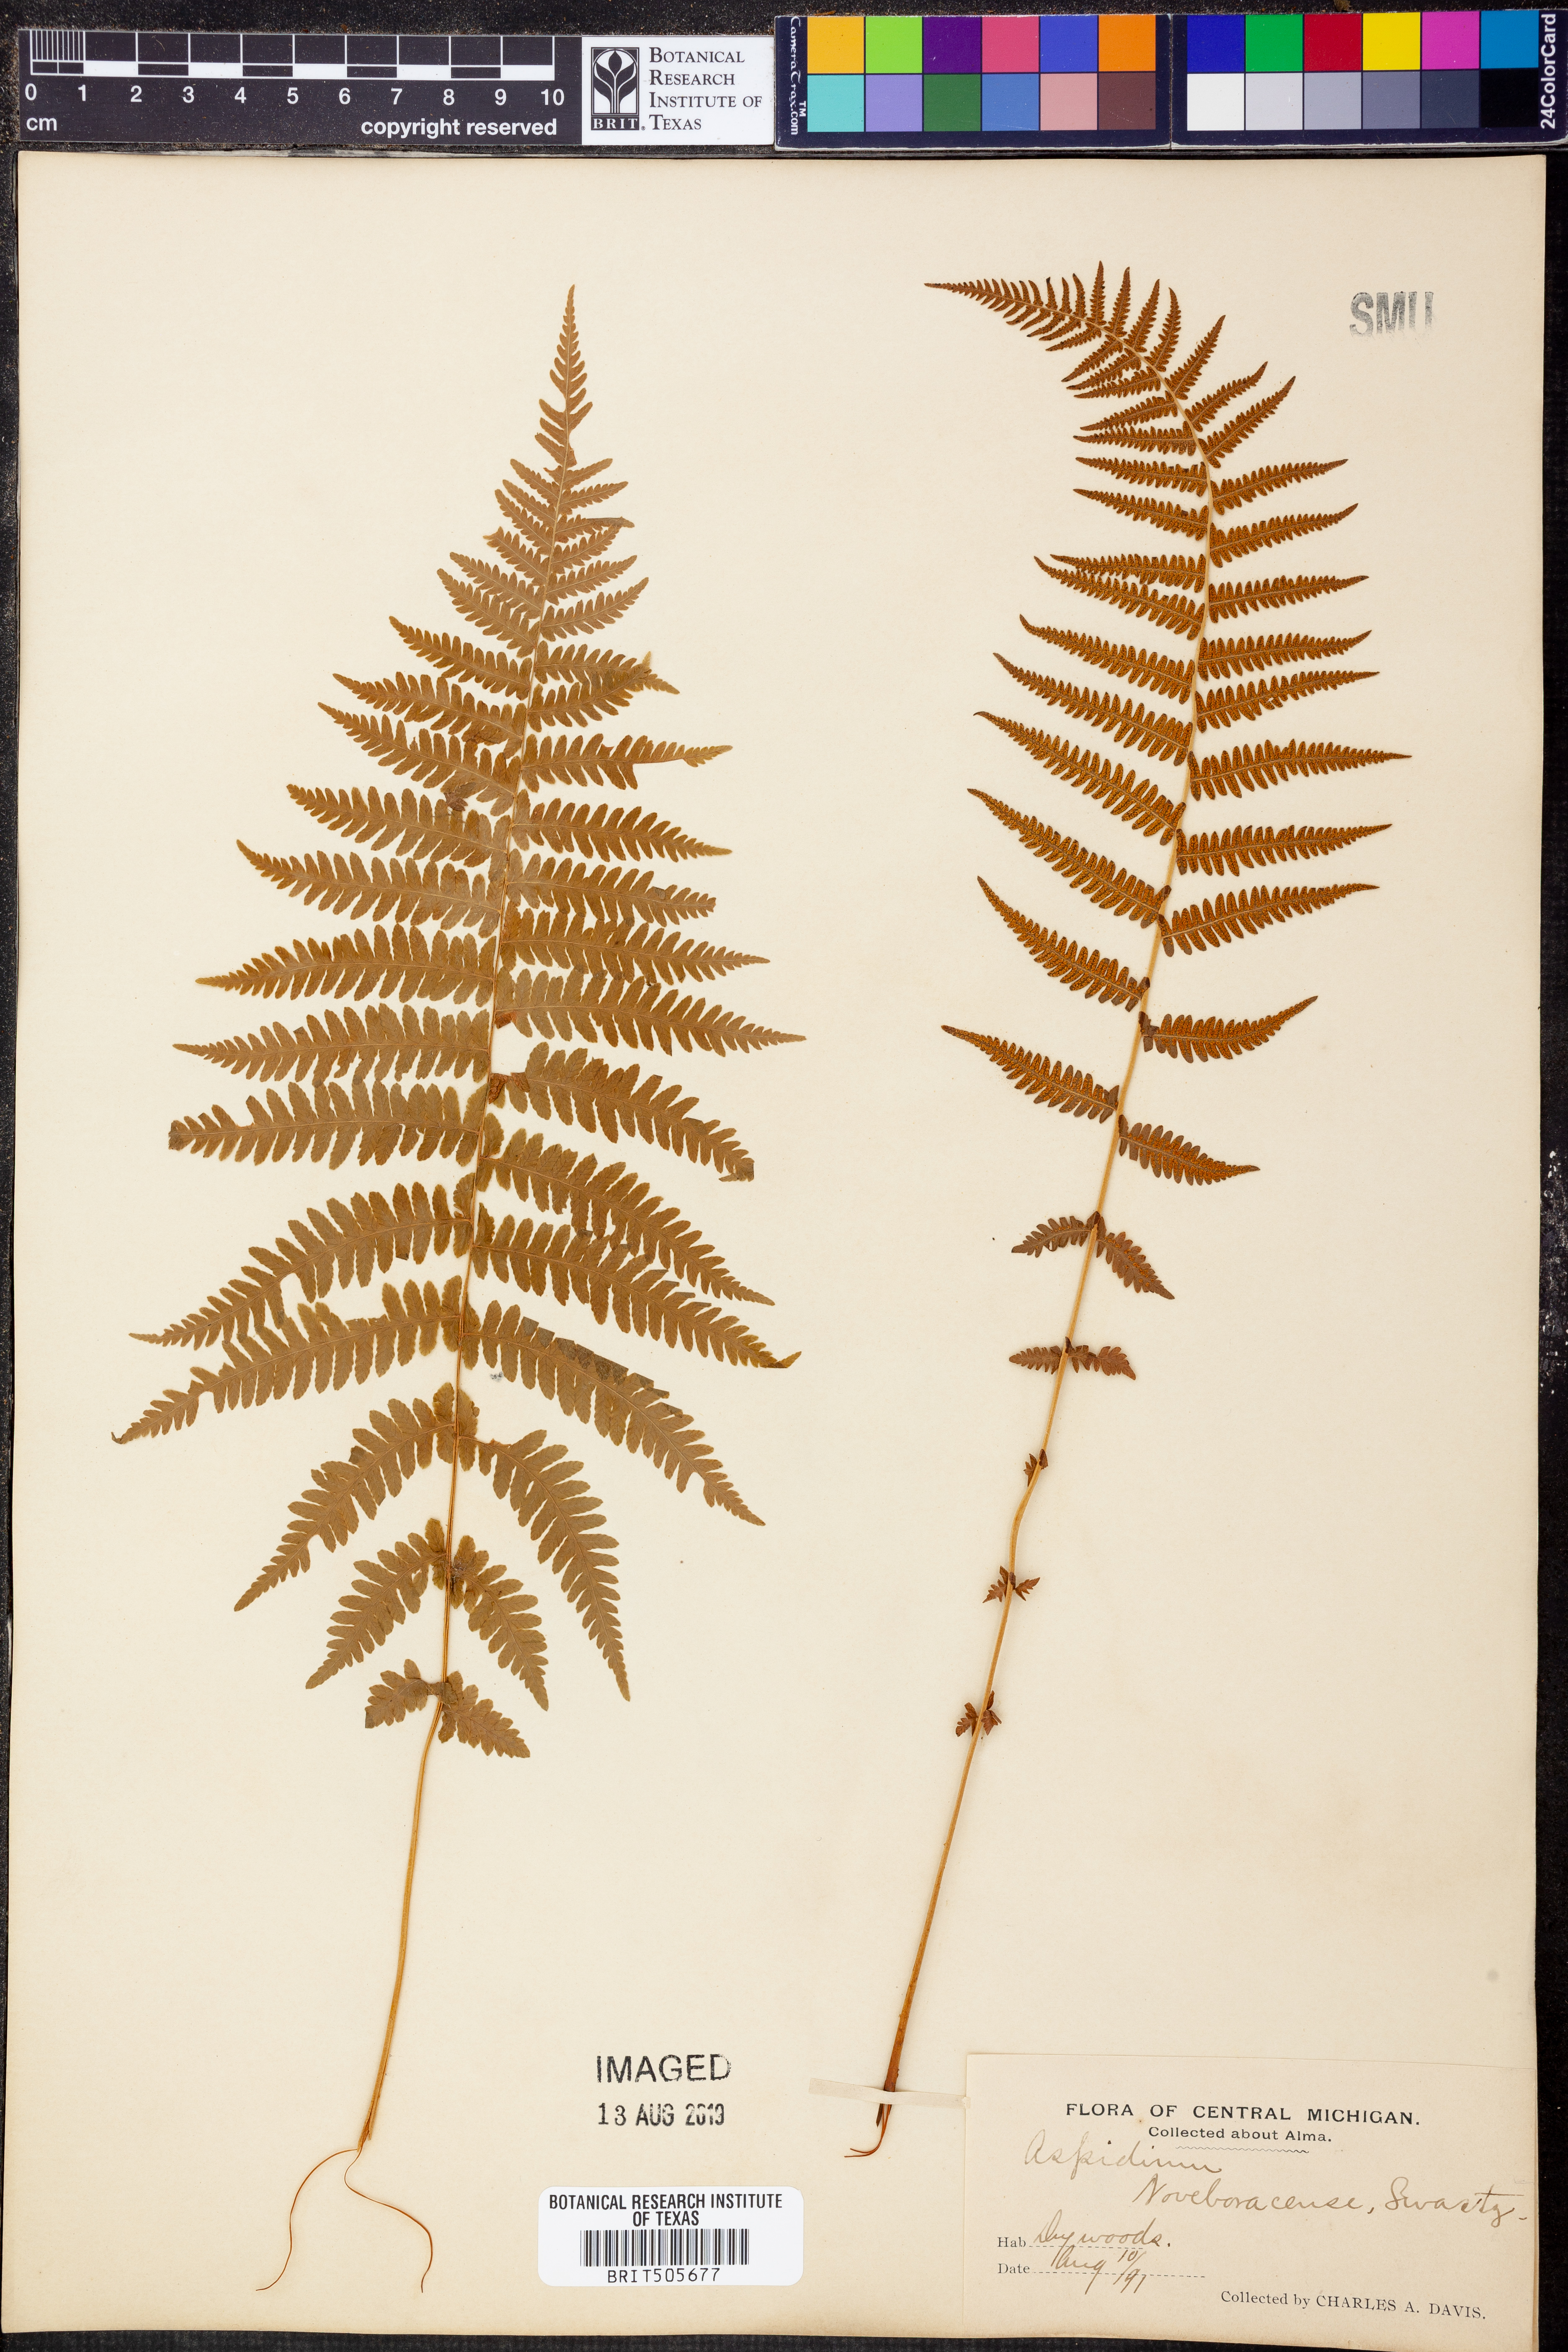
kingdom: Plantae
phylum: Tracheophyta
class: Polypodiopsida
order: Polypodiales
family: Thelypteridaceae
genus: Amauropelta
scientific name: Amauropelta noveboracensis
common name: New york fern
